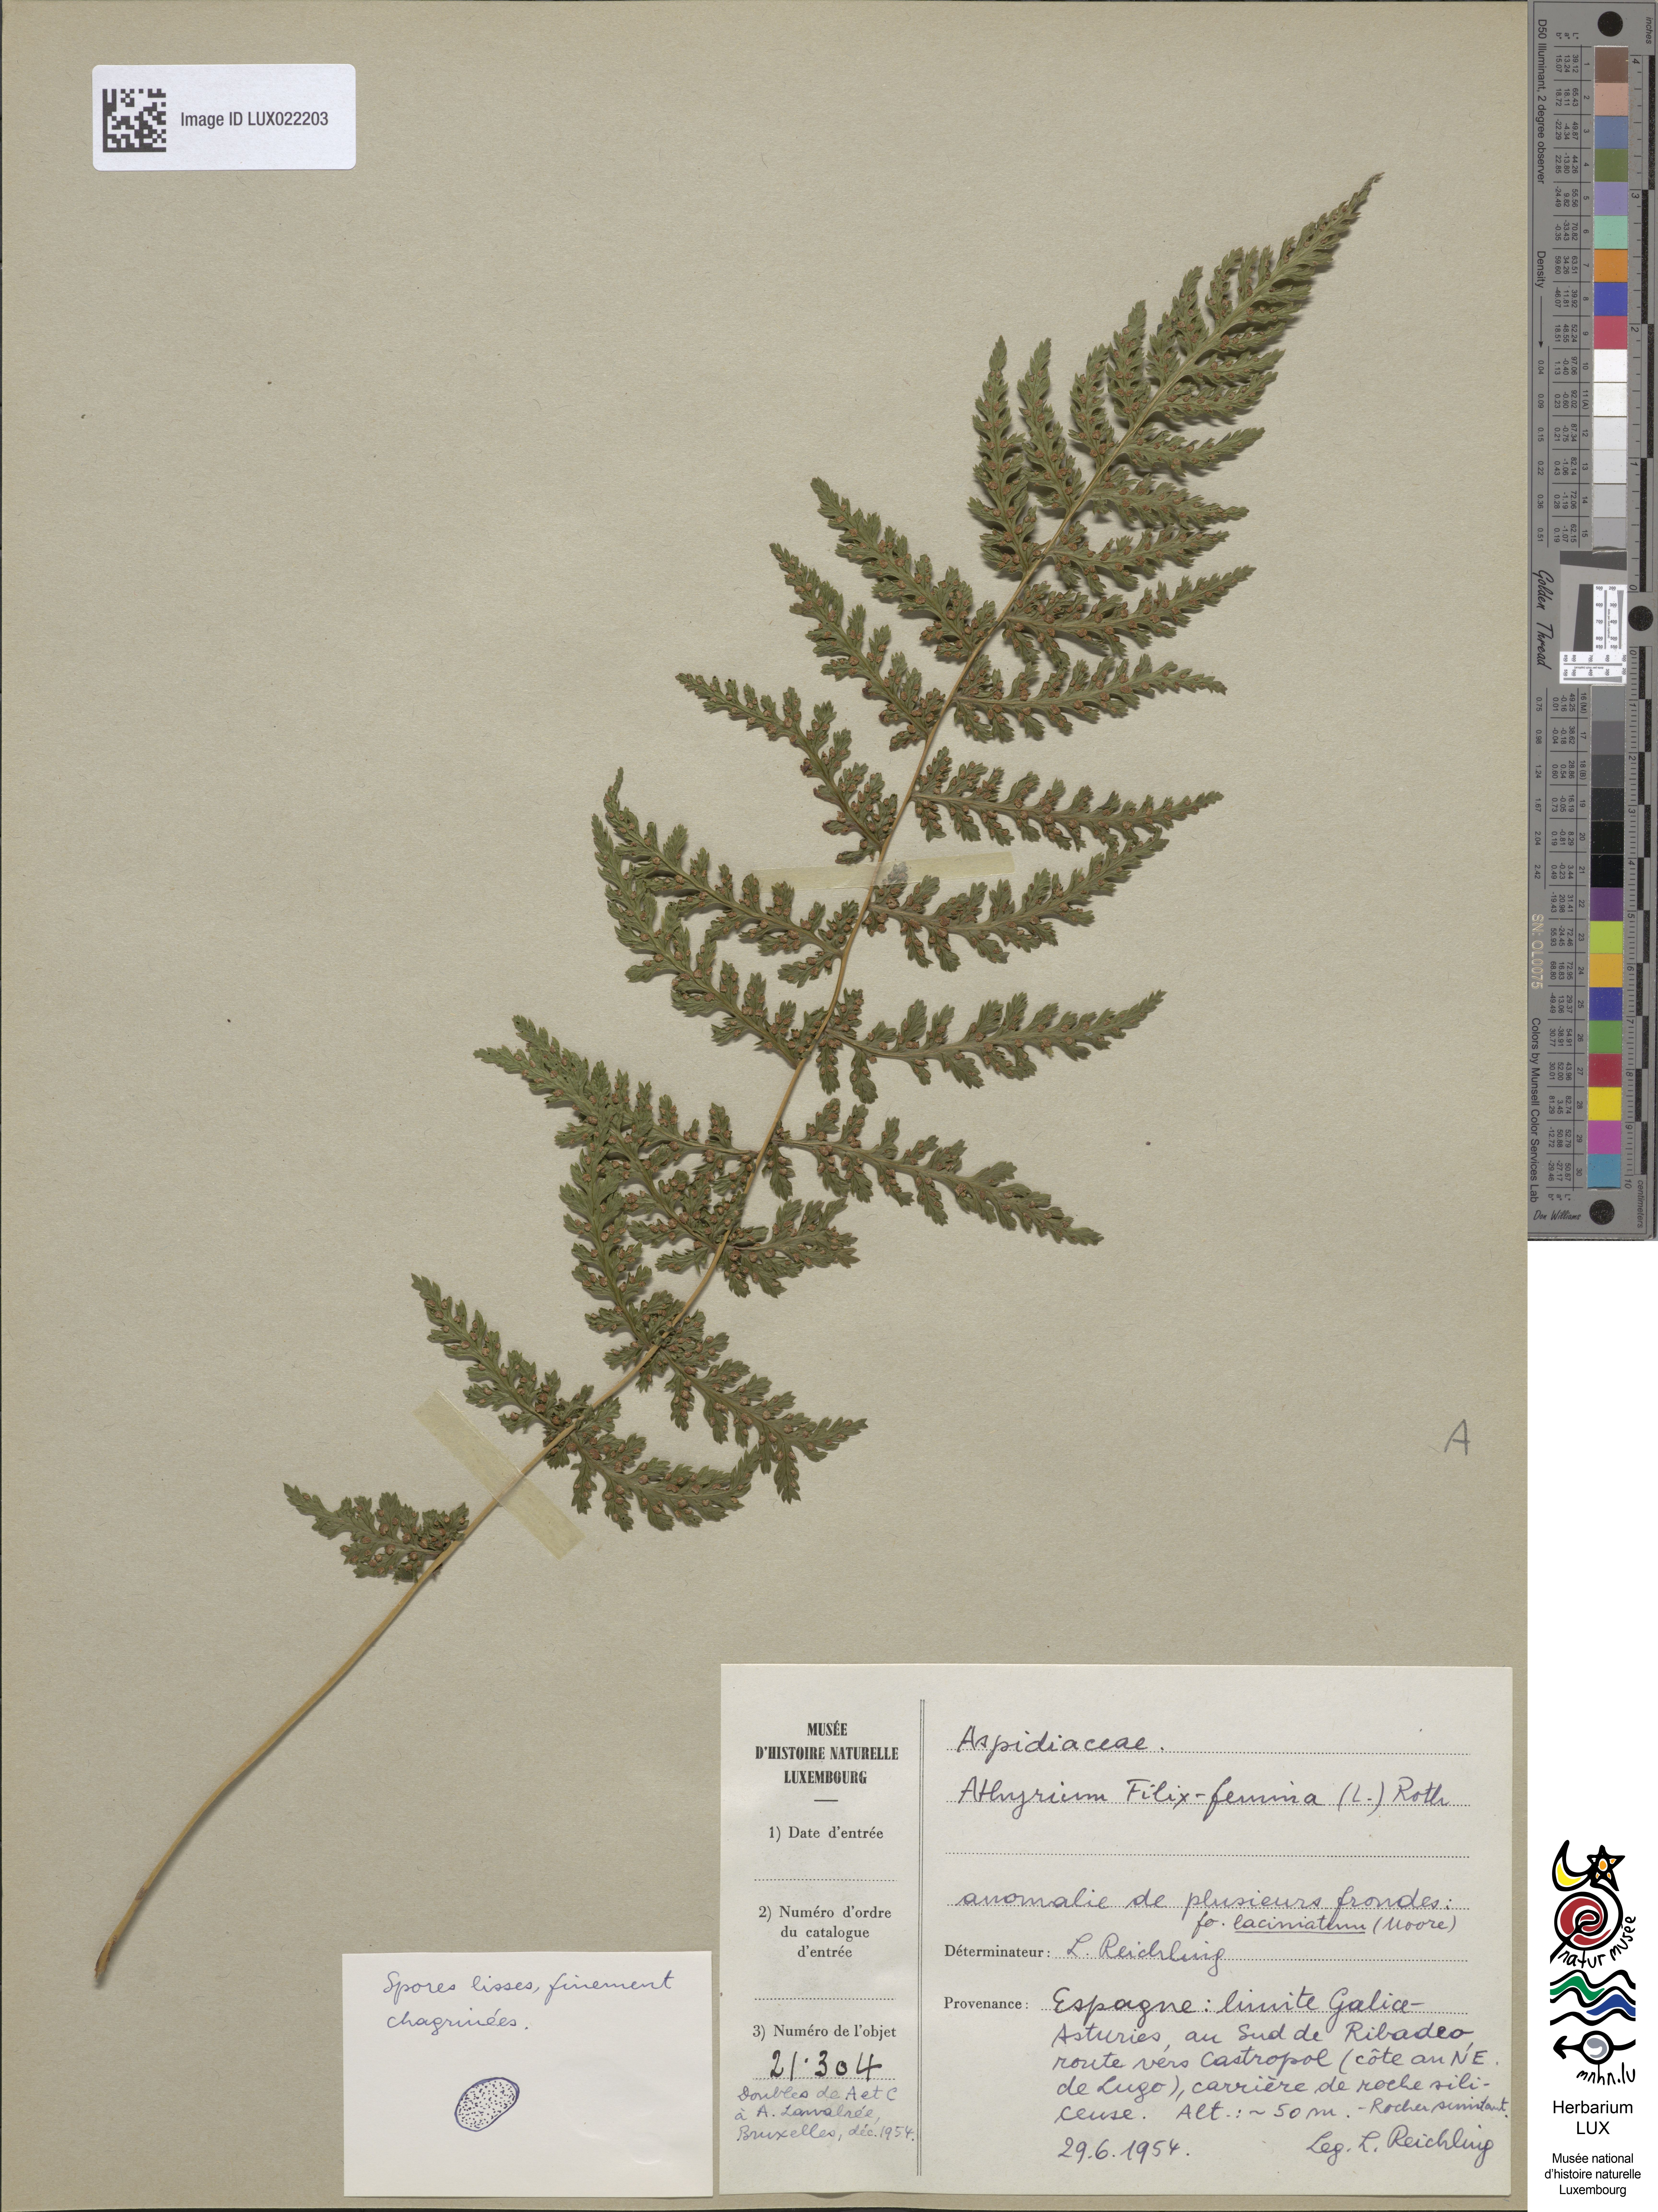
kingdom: Plantae
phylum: Tracheophyta
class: Polypodiopsida
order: Polypodiales
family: Athyriaceae
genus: Athyrium
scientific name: Athyrium filix-femina
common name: Lady fern
